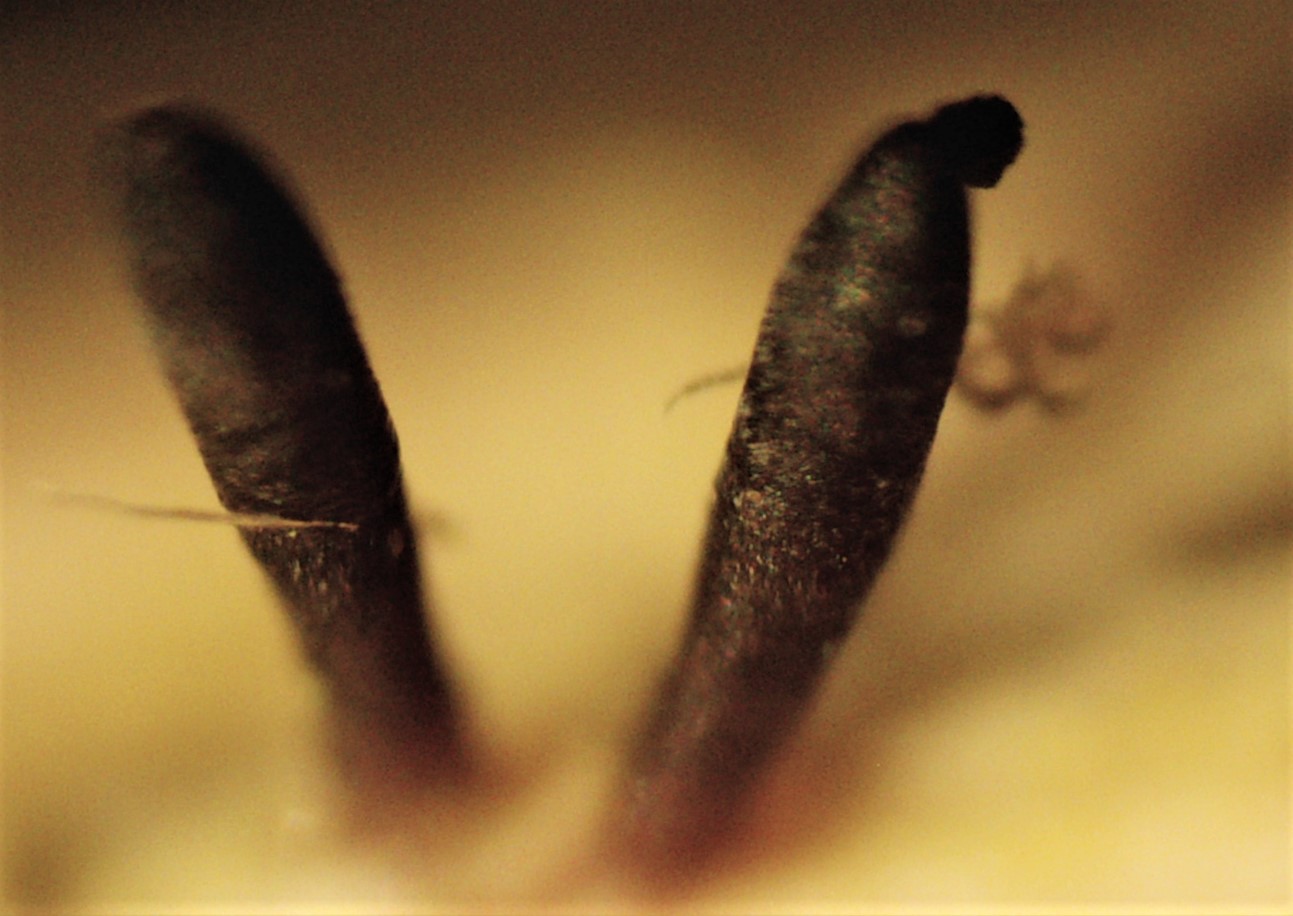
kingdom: Fungi
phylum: Ascomycota
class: Dothideomycetes
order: Acrospermales
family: Acrospermaceae
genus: Acrospermum
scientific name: Acrospermum compressum
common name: nælde-stængeltunge
